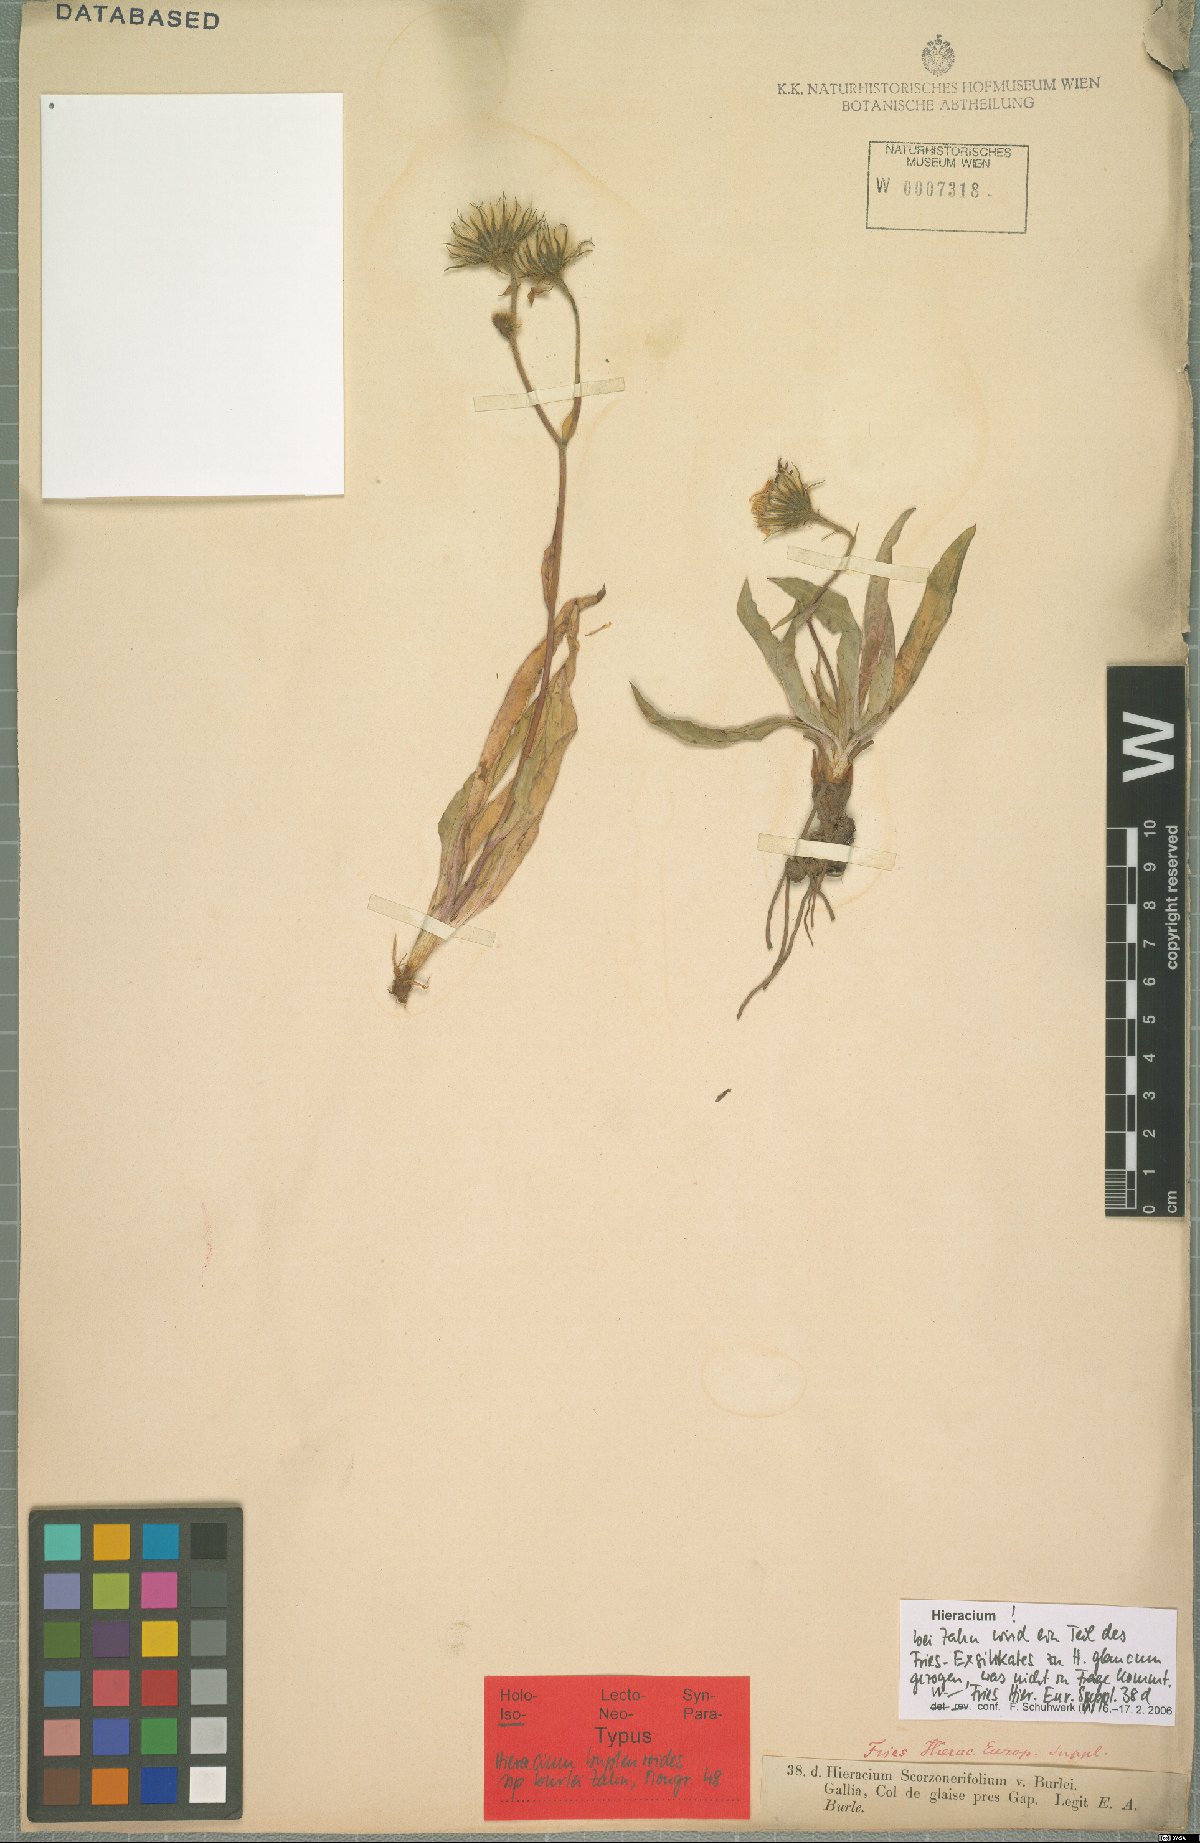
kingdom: Plantae
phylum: Tracheophyta
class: Magnoliopsida
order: Asterales
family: Asteraceae
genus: Hieracium
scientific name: Hieracium bupleuroides
